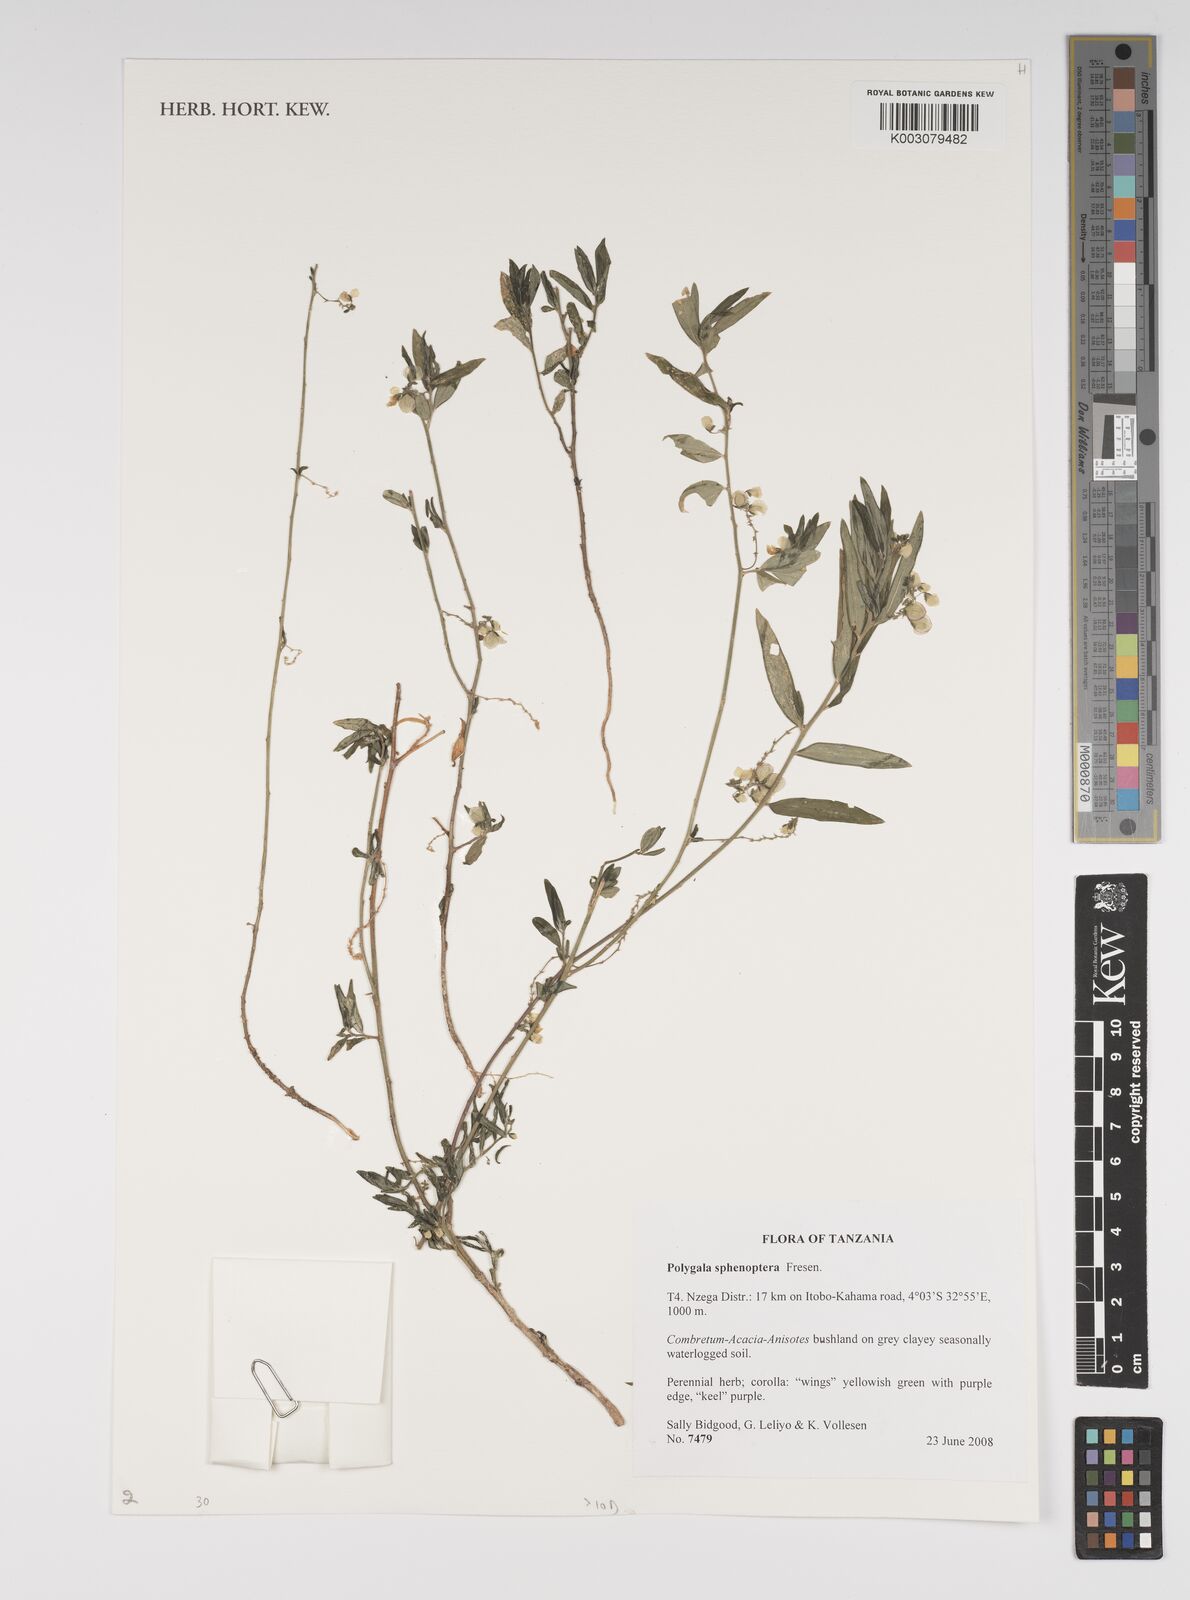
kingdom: Plantae
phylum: Tracheophyta
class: Magnoliopsida
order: Fabales
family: Polygalaceae
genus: Polygala
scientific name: Polygala sphenoptera
